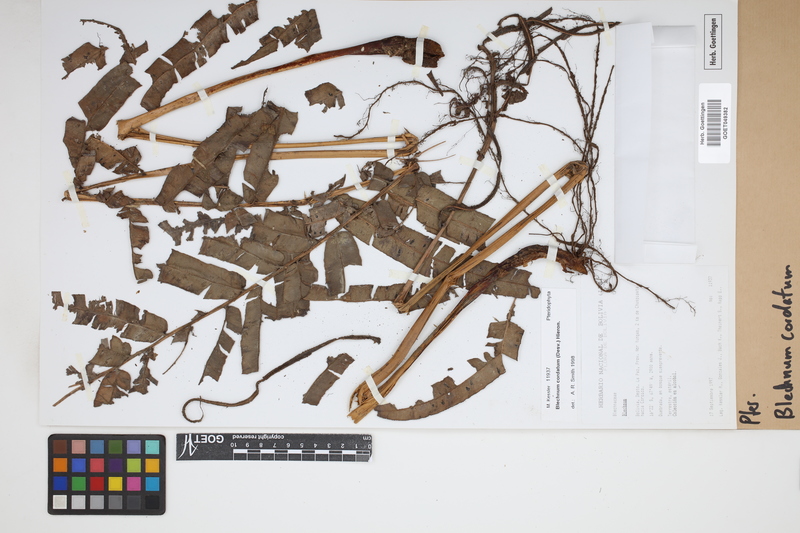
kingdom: Plantae
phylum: Tracheophyta
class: Polypodiopsida
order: Polypodiales
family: Blechnaceae
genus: Parablechnum
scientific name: Parablechnum cordatum
